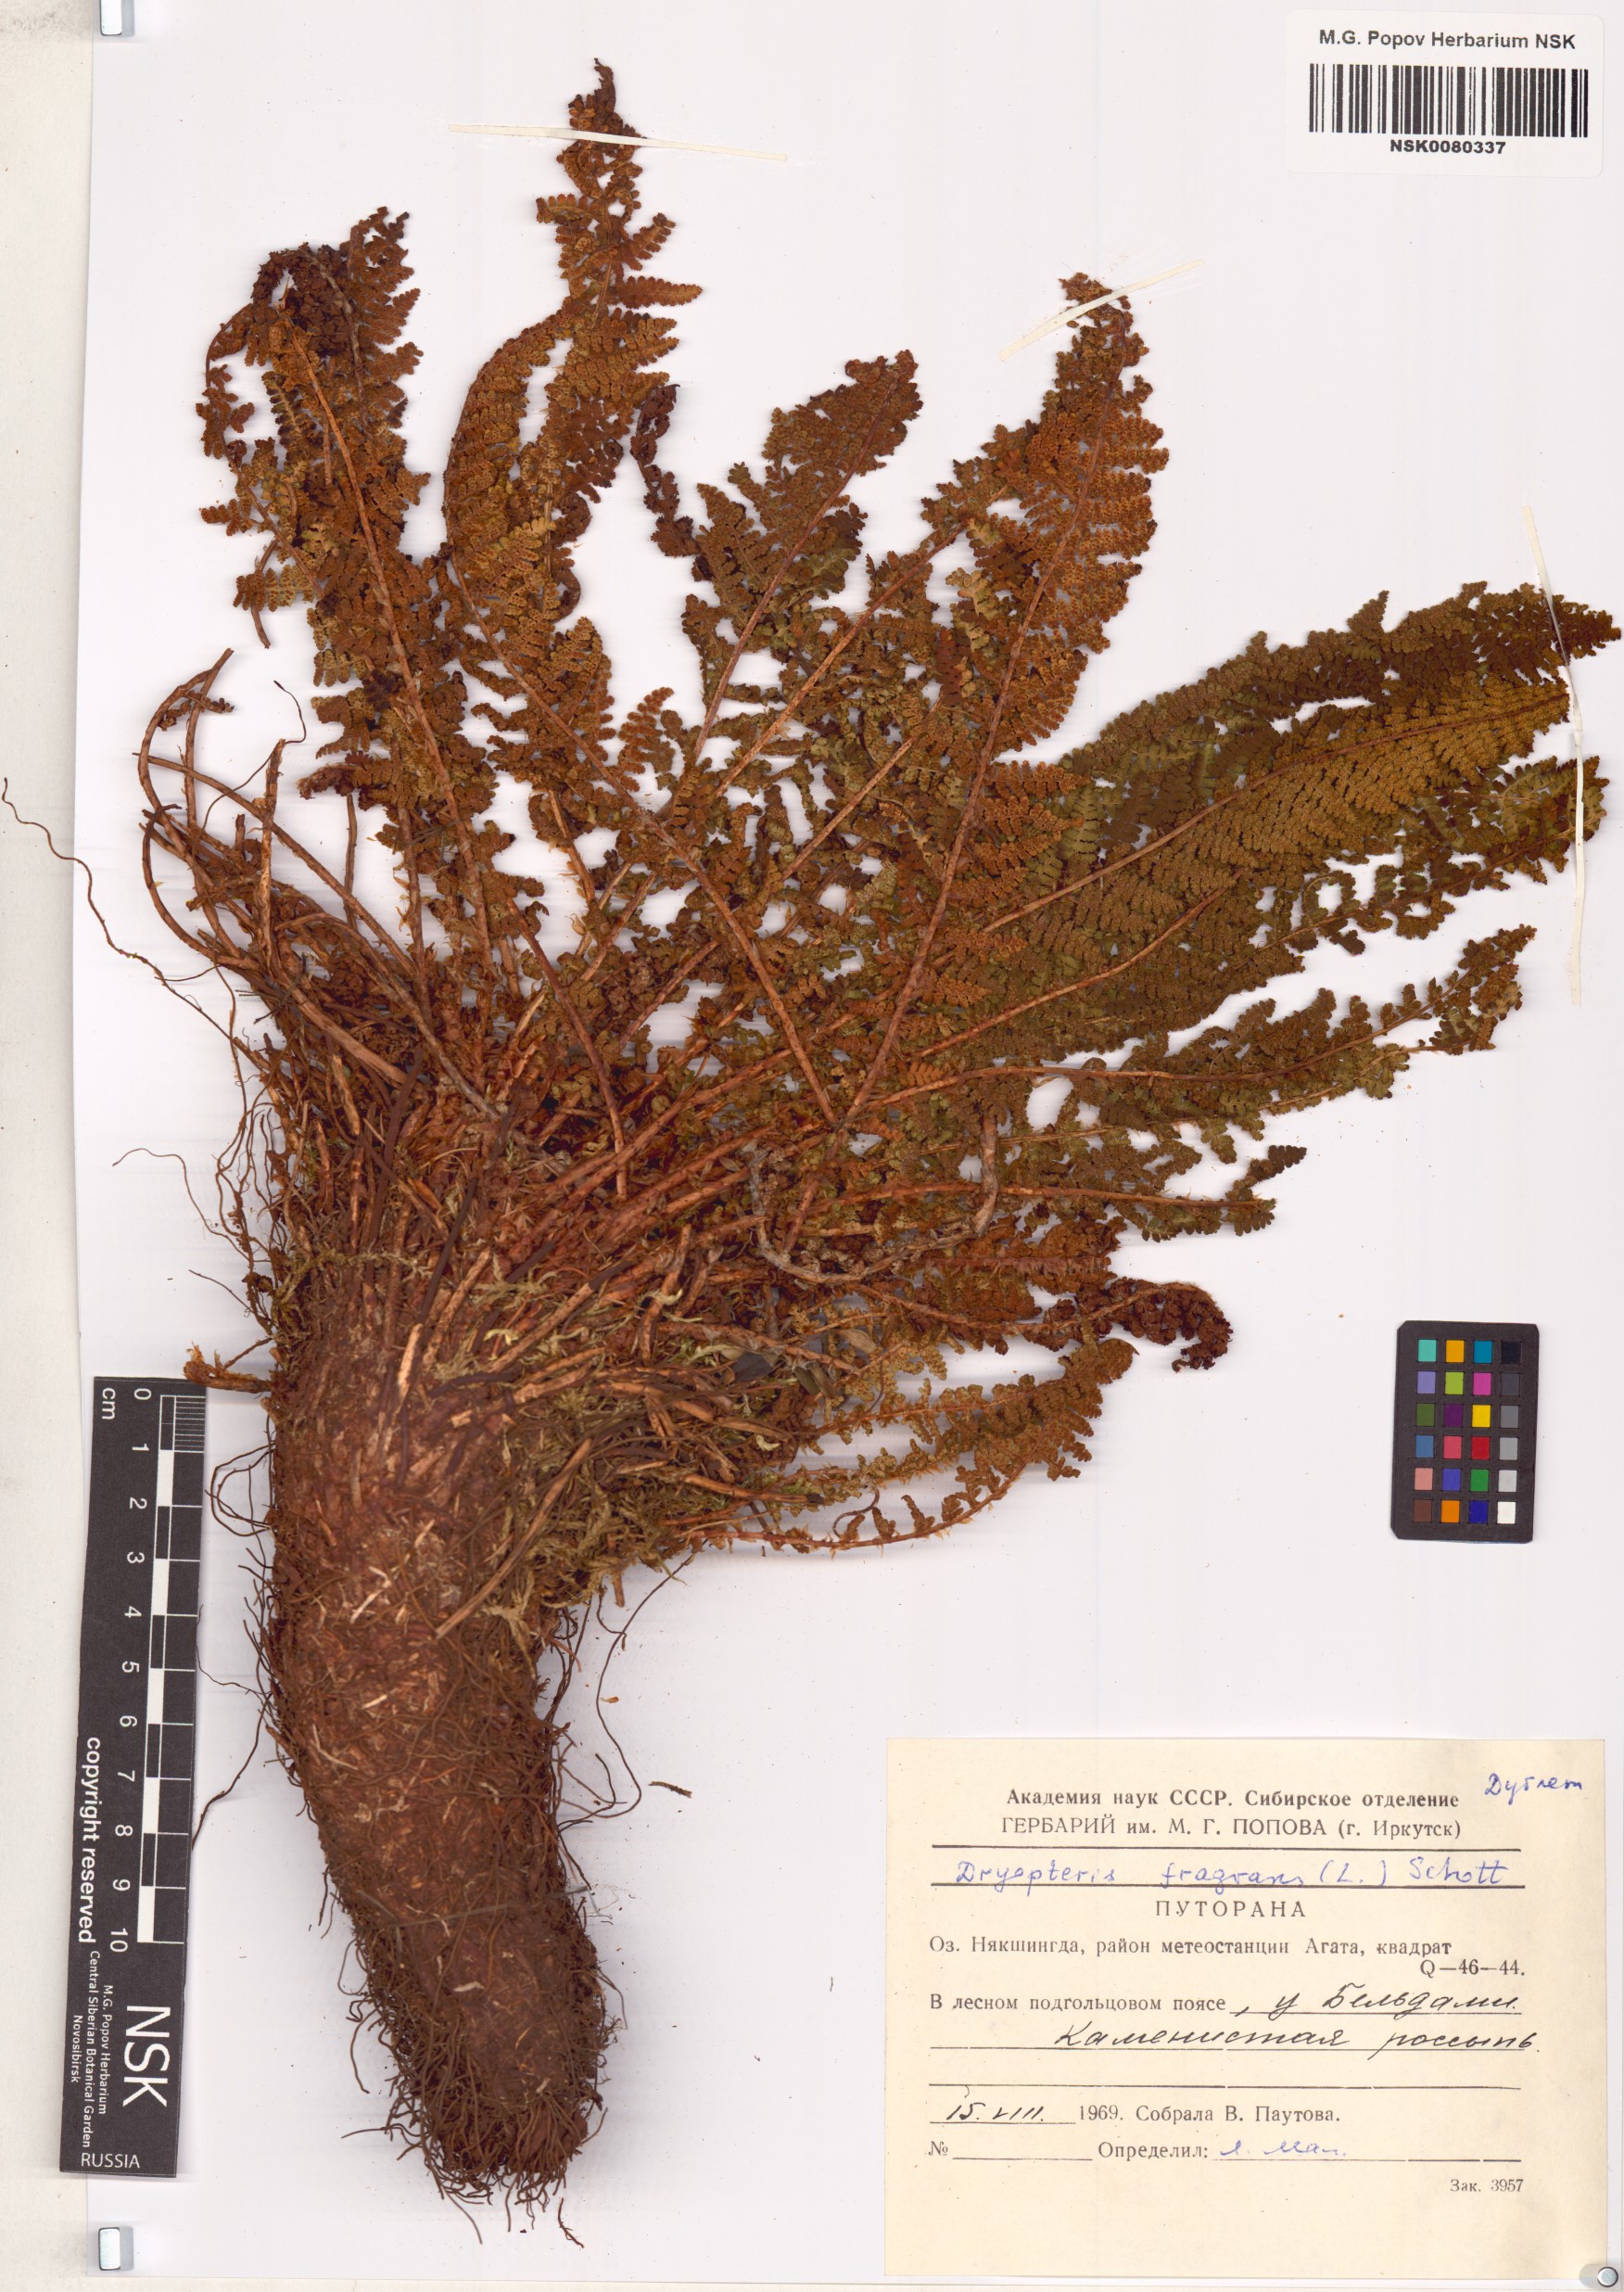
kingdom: Plantae
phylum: Tracheophyta
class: Polypodiopsida
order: Polypodiales
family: Dryopteridaceae
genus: Dryopteris
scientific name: Dryopteris fragrans
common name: Fragrant wood fern
